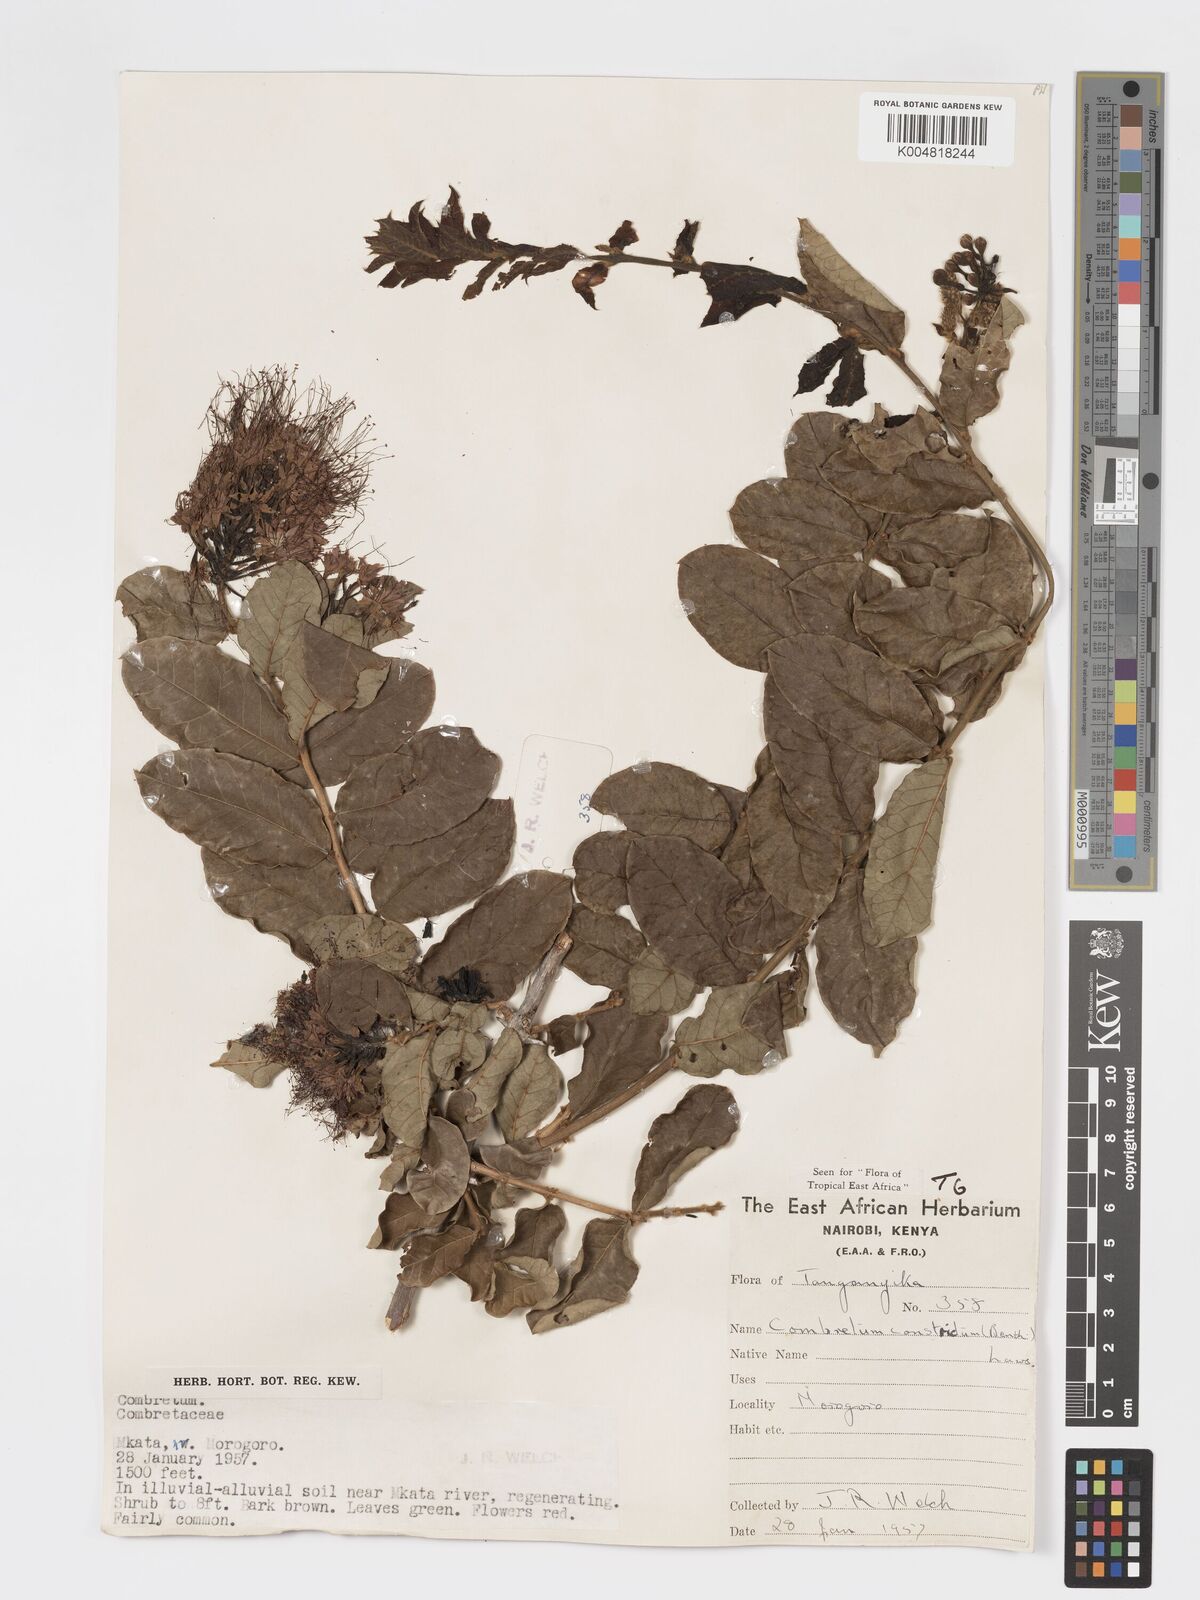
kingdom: Plantae
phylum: Tracheophyta
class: Magnoliopsida
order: Myrtales
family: Combretaceae
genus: Combretum
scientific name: Combretum constrictum
